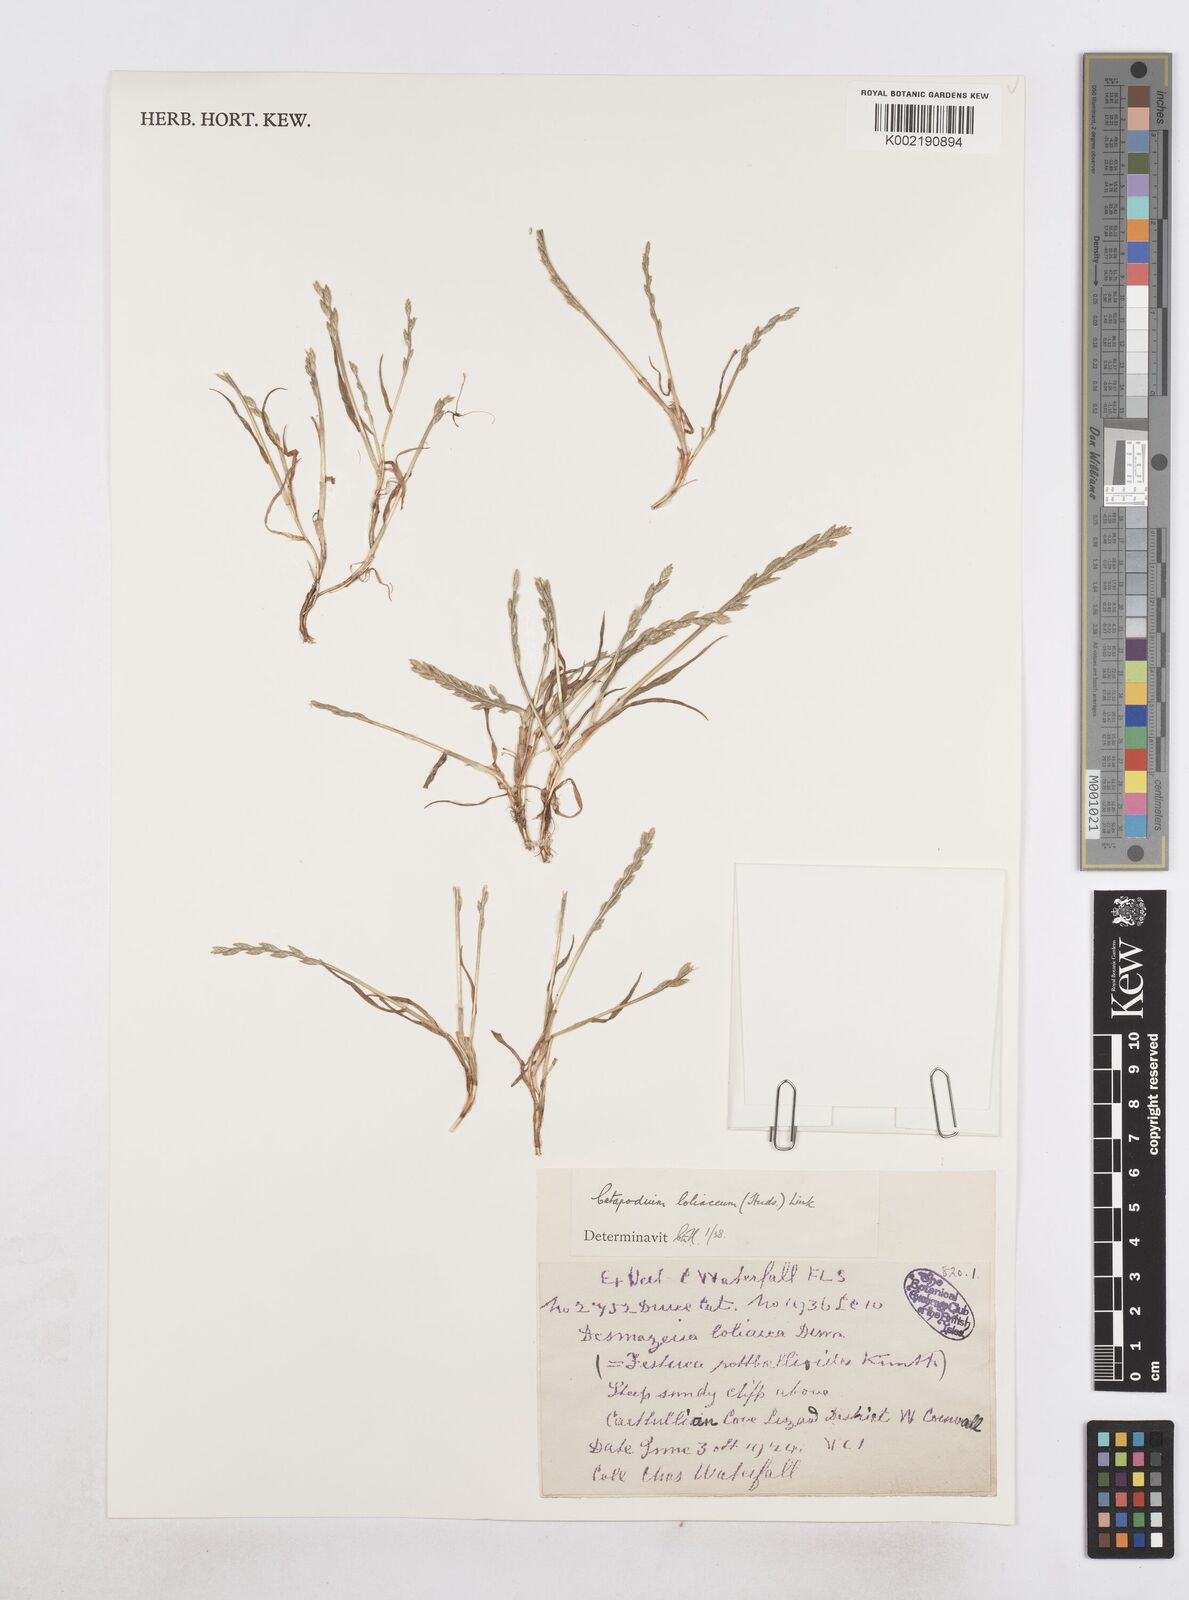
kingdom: Plantae
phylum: Tracheophyta
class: Liliopsida
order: Poales
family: Poaceae
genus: Catapodium
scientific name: Catapodium marinum
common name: Sea fern-grass
